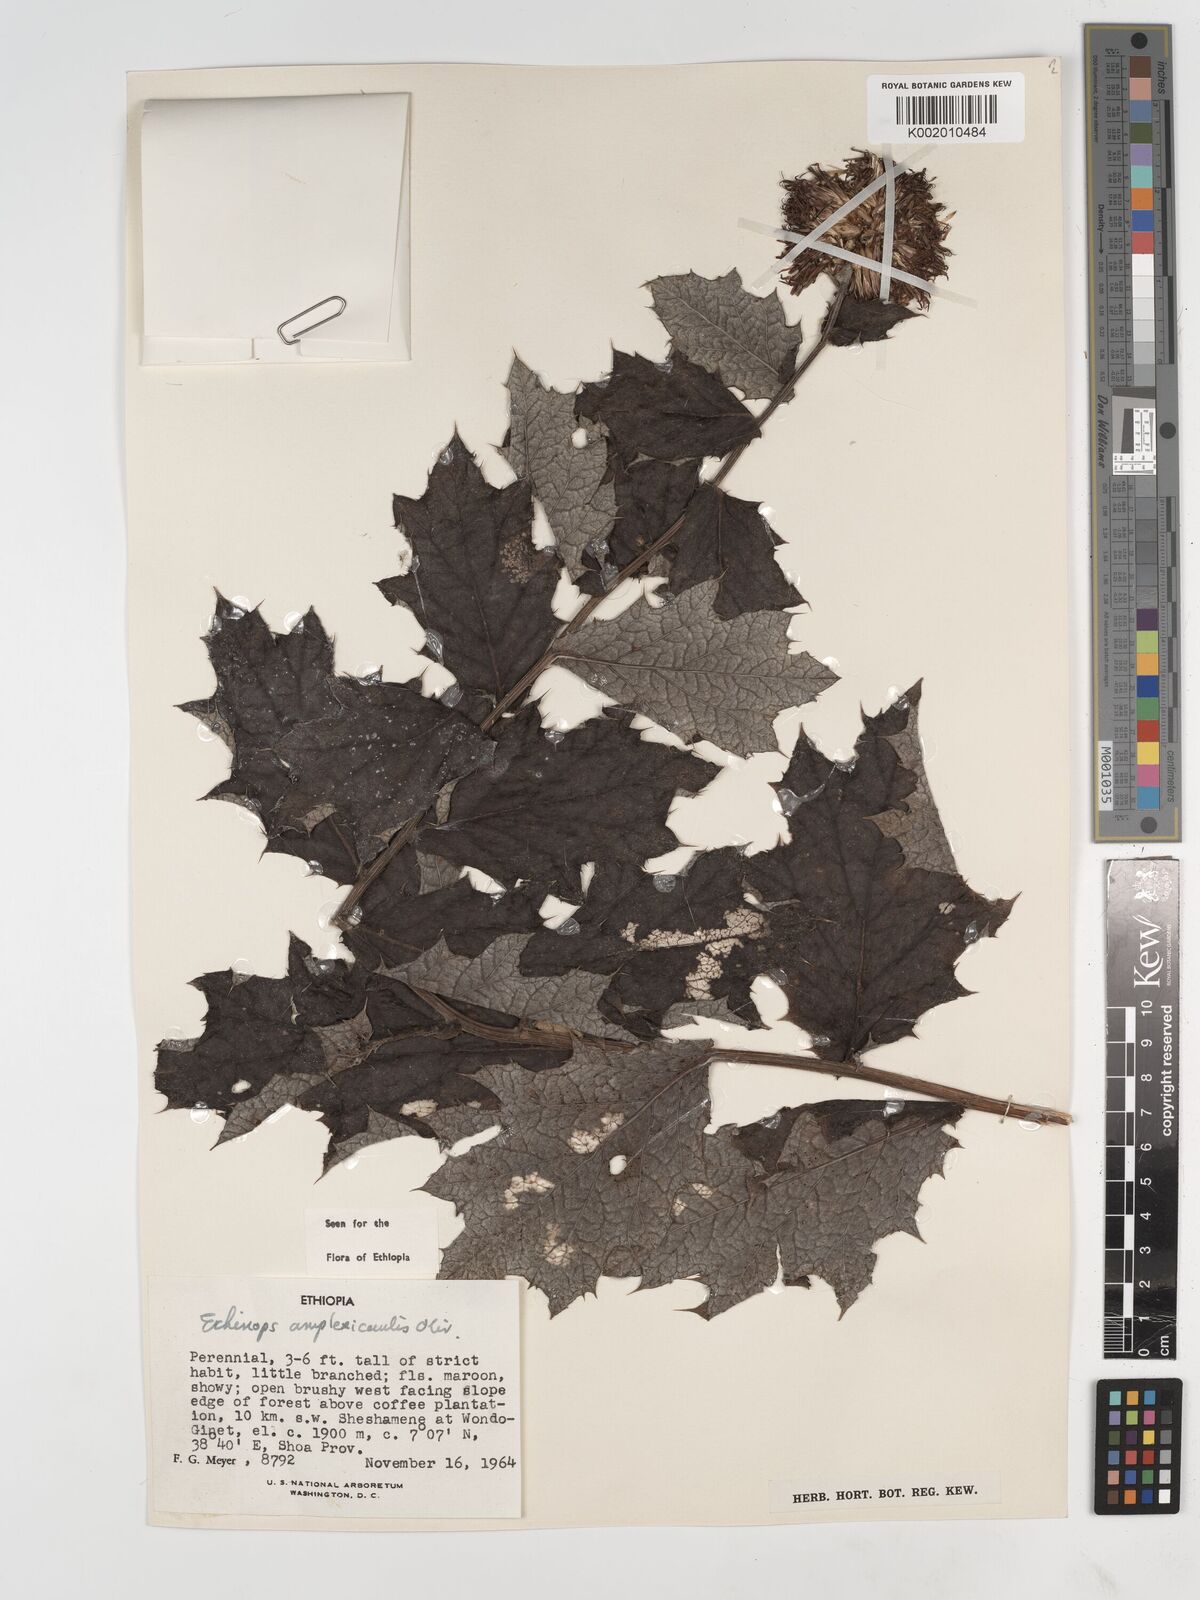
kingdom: Plantae
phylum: Tracheophyta
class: Magnoliopsida
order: Asterales
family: Asteraceae
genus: Echinops
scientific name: Echinops amplexicaulis
